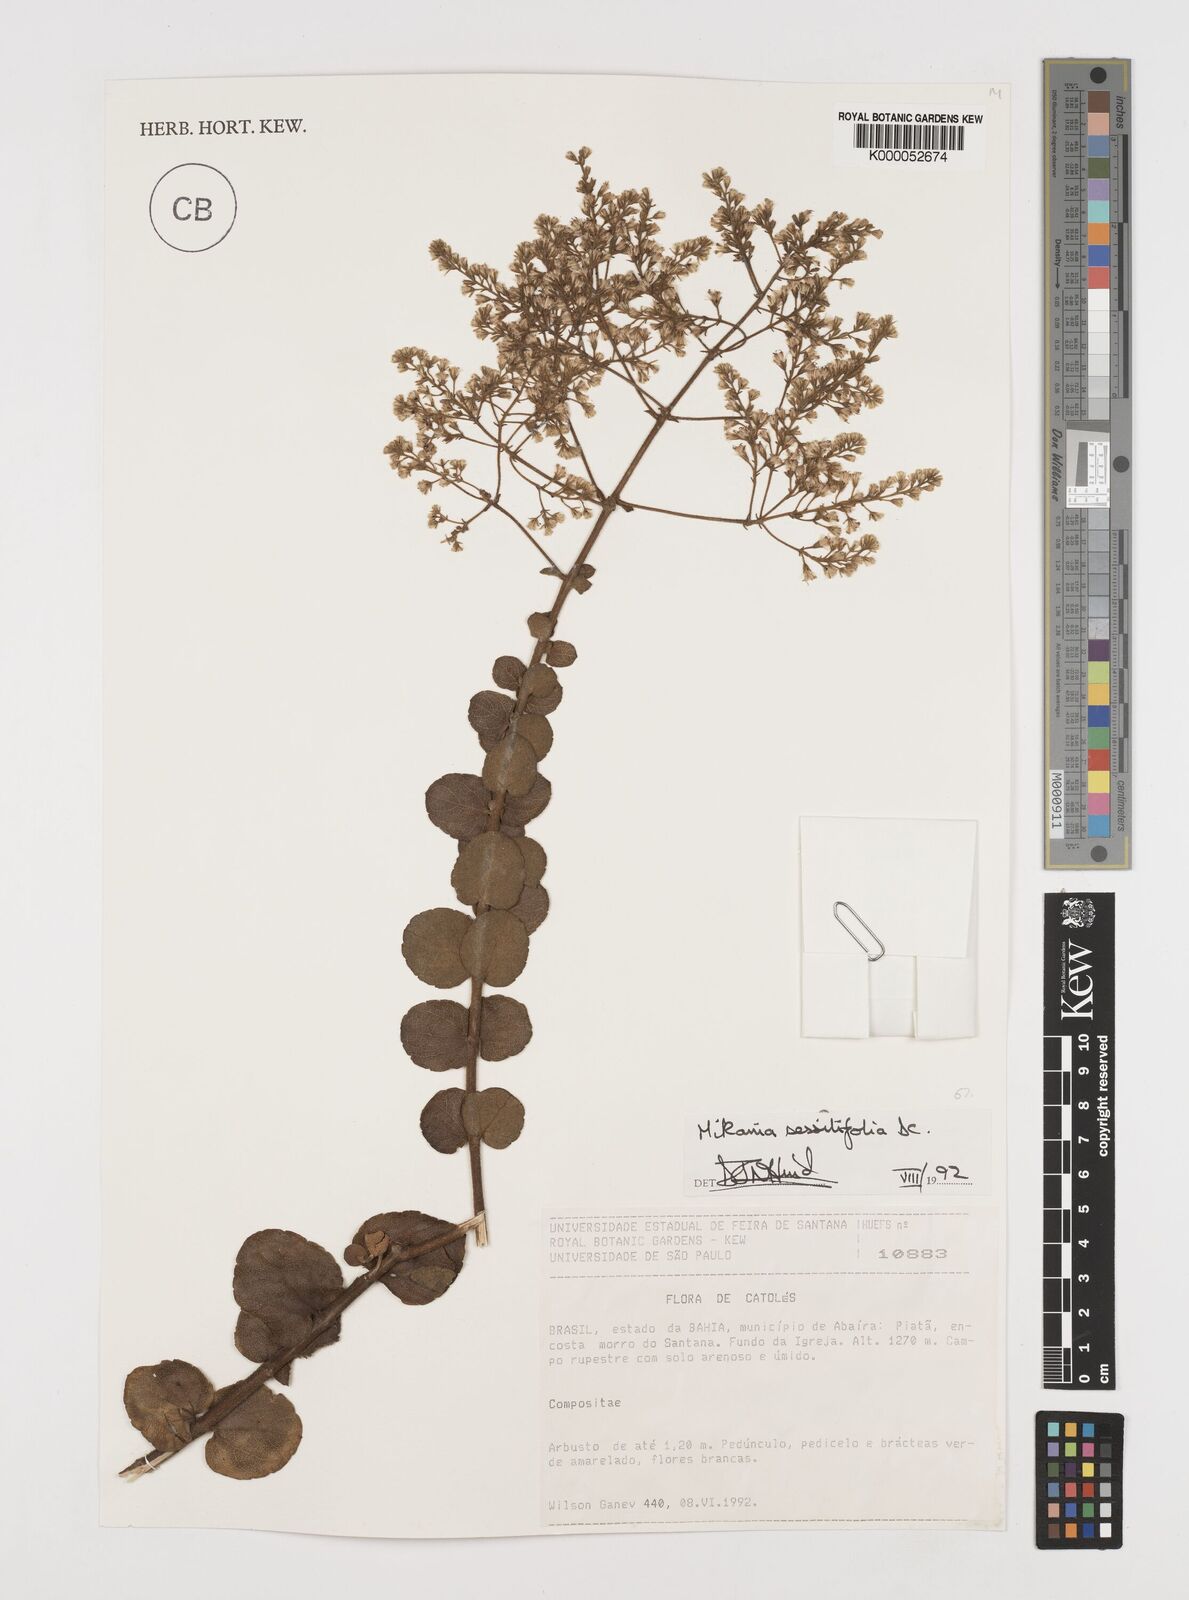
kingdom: Plantae
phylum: Tracheophyta
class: Magnoliopsida
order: Asterales
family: Asteraceae
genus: Mikania
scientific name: Mikania sessilifolia
